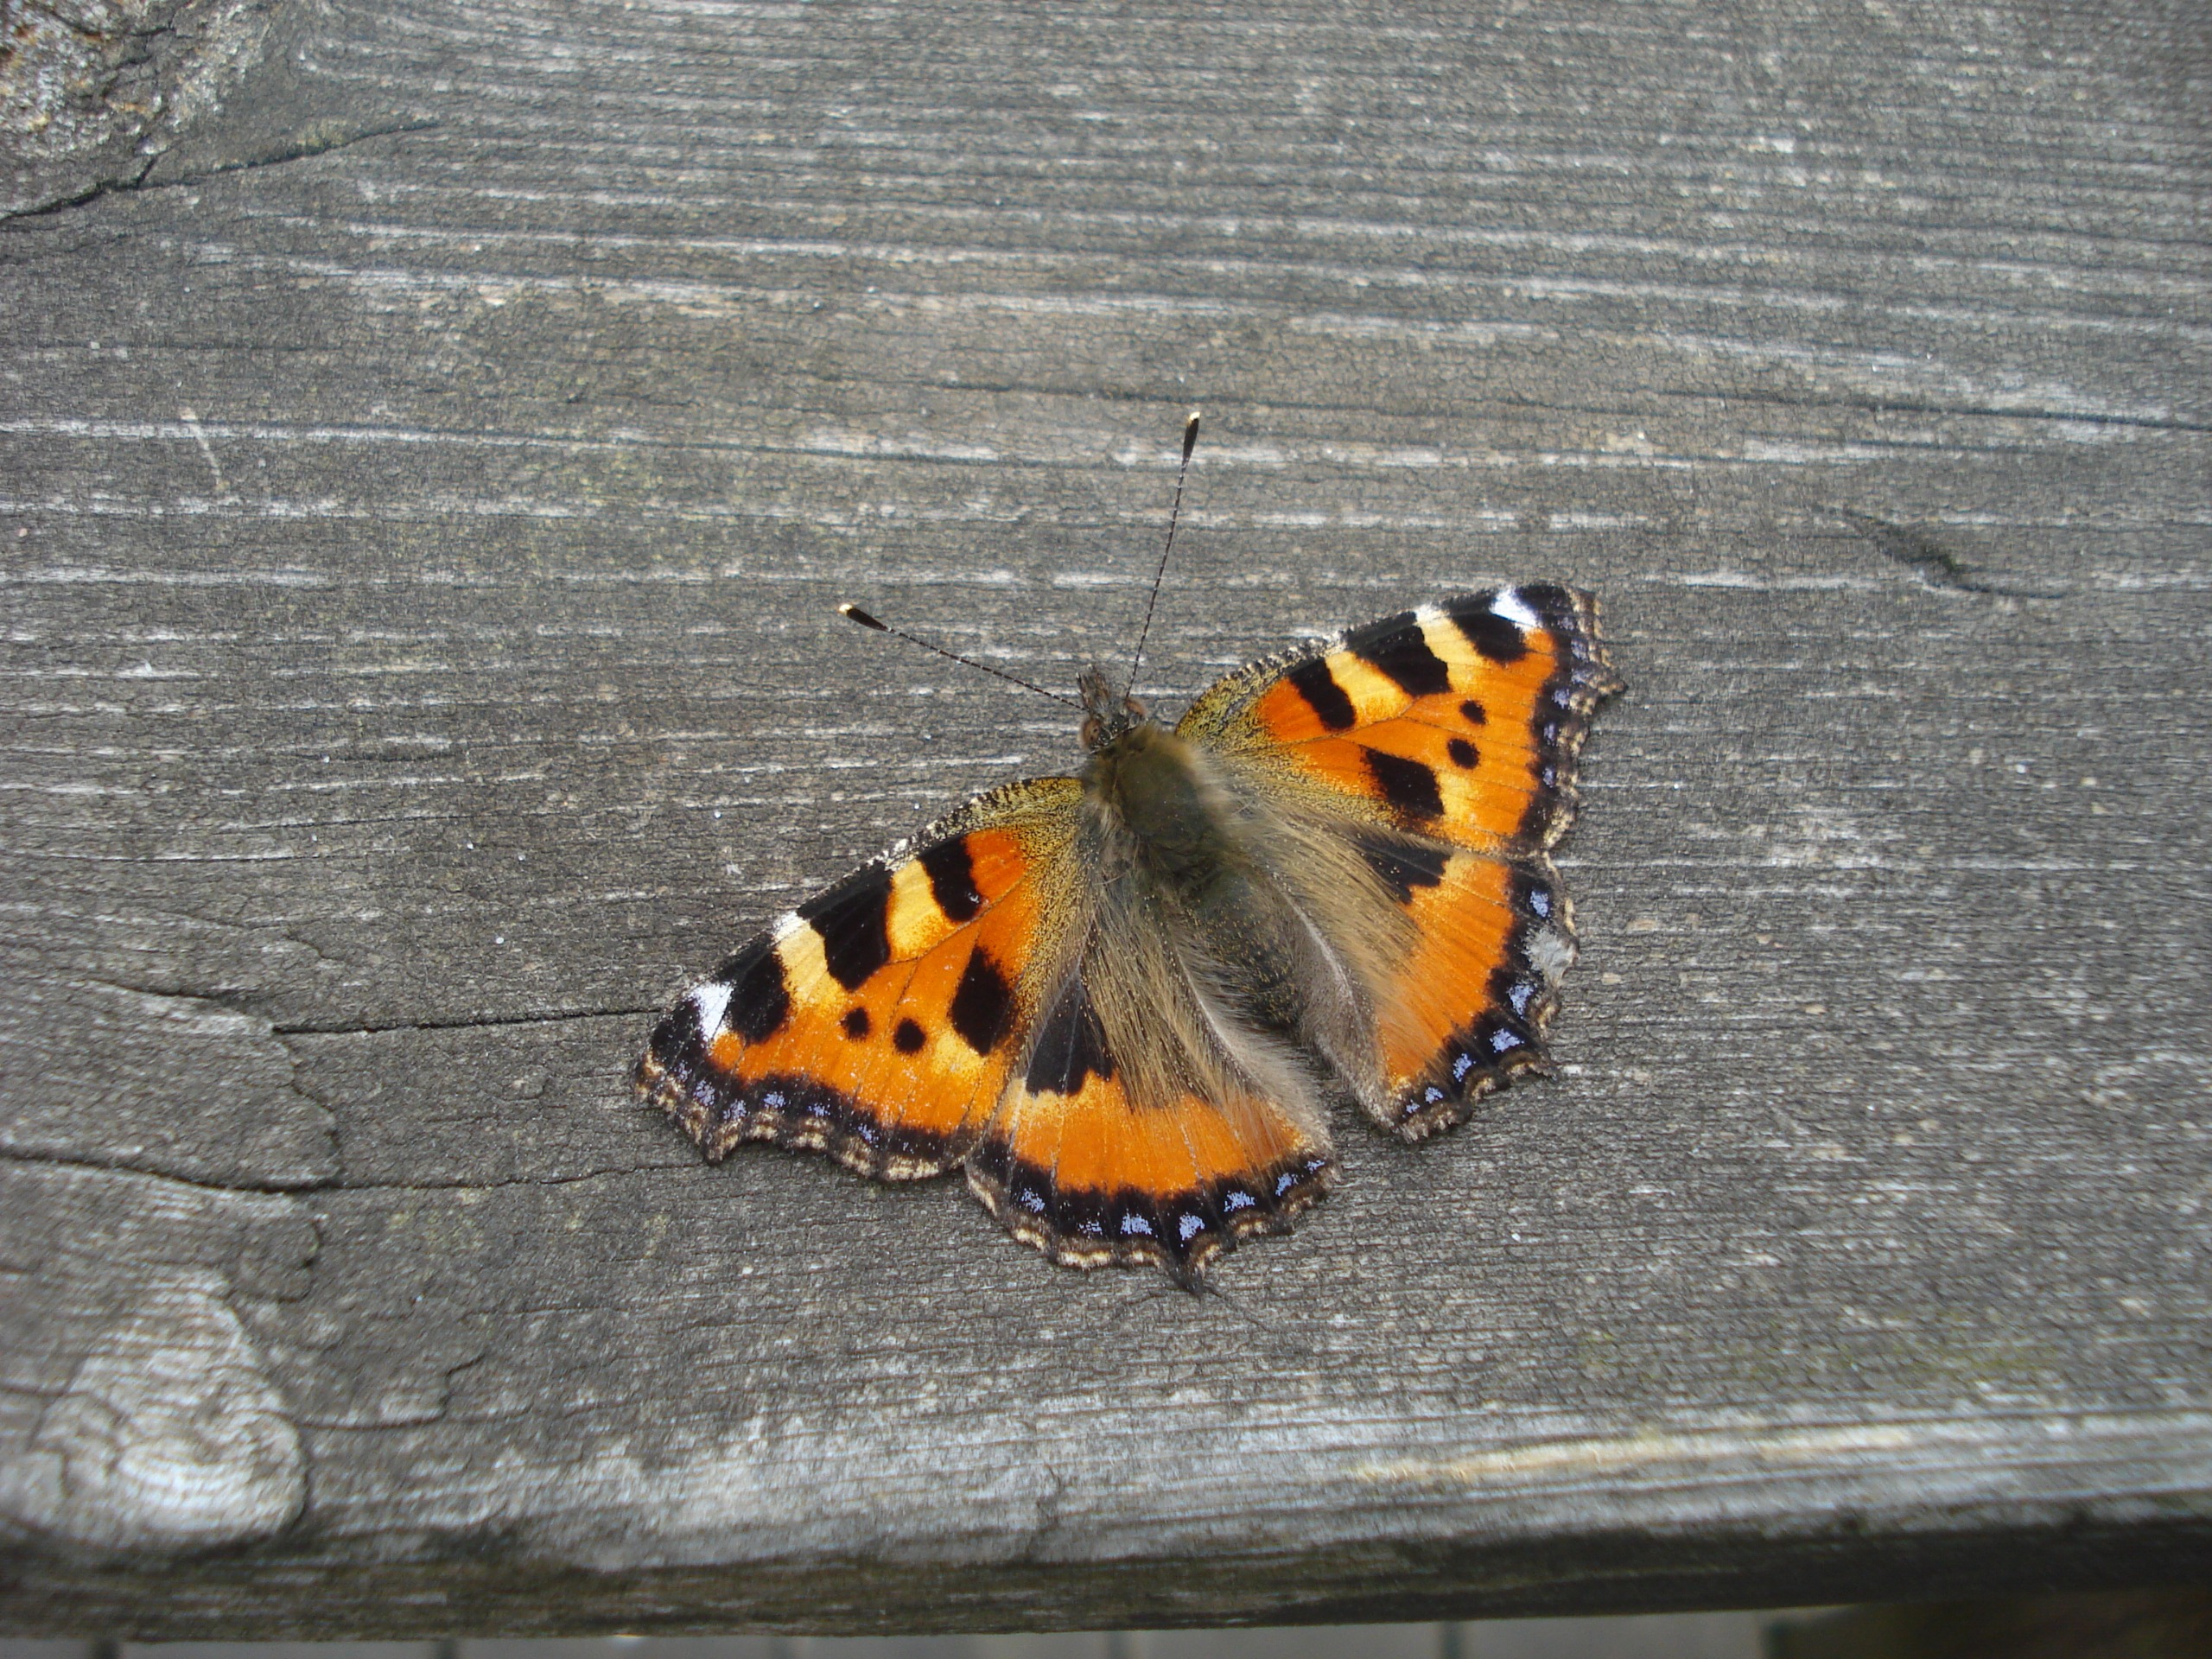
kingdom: Animalia
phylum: Arthropoda
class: Insecta
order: Lepidoptera
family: Nymphalidae
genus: Aglais
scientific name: Aglais urticae
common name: Nældens takvinge
